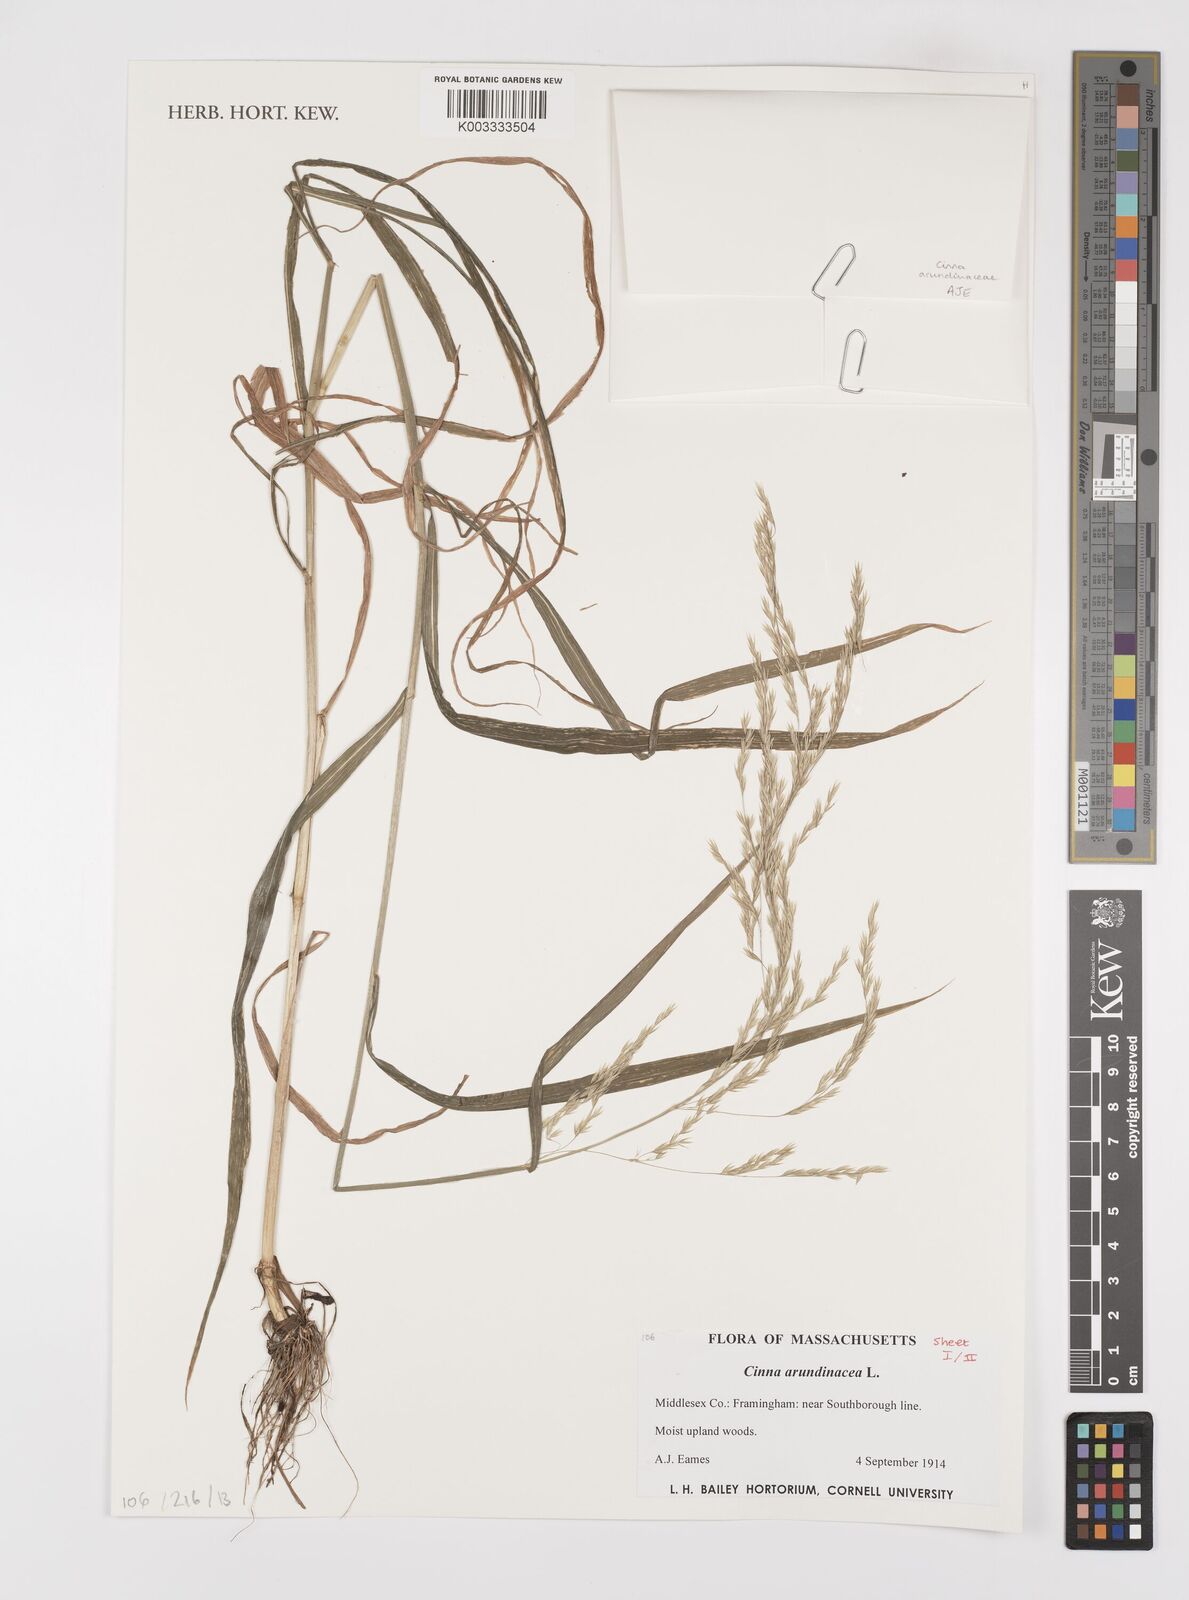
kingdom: Plantae
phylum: Tracheophyta
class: Liliopsida
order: Poales
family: Poaceae
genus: Cinna
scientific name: Cinna
